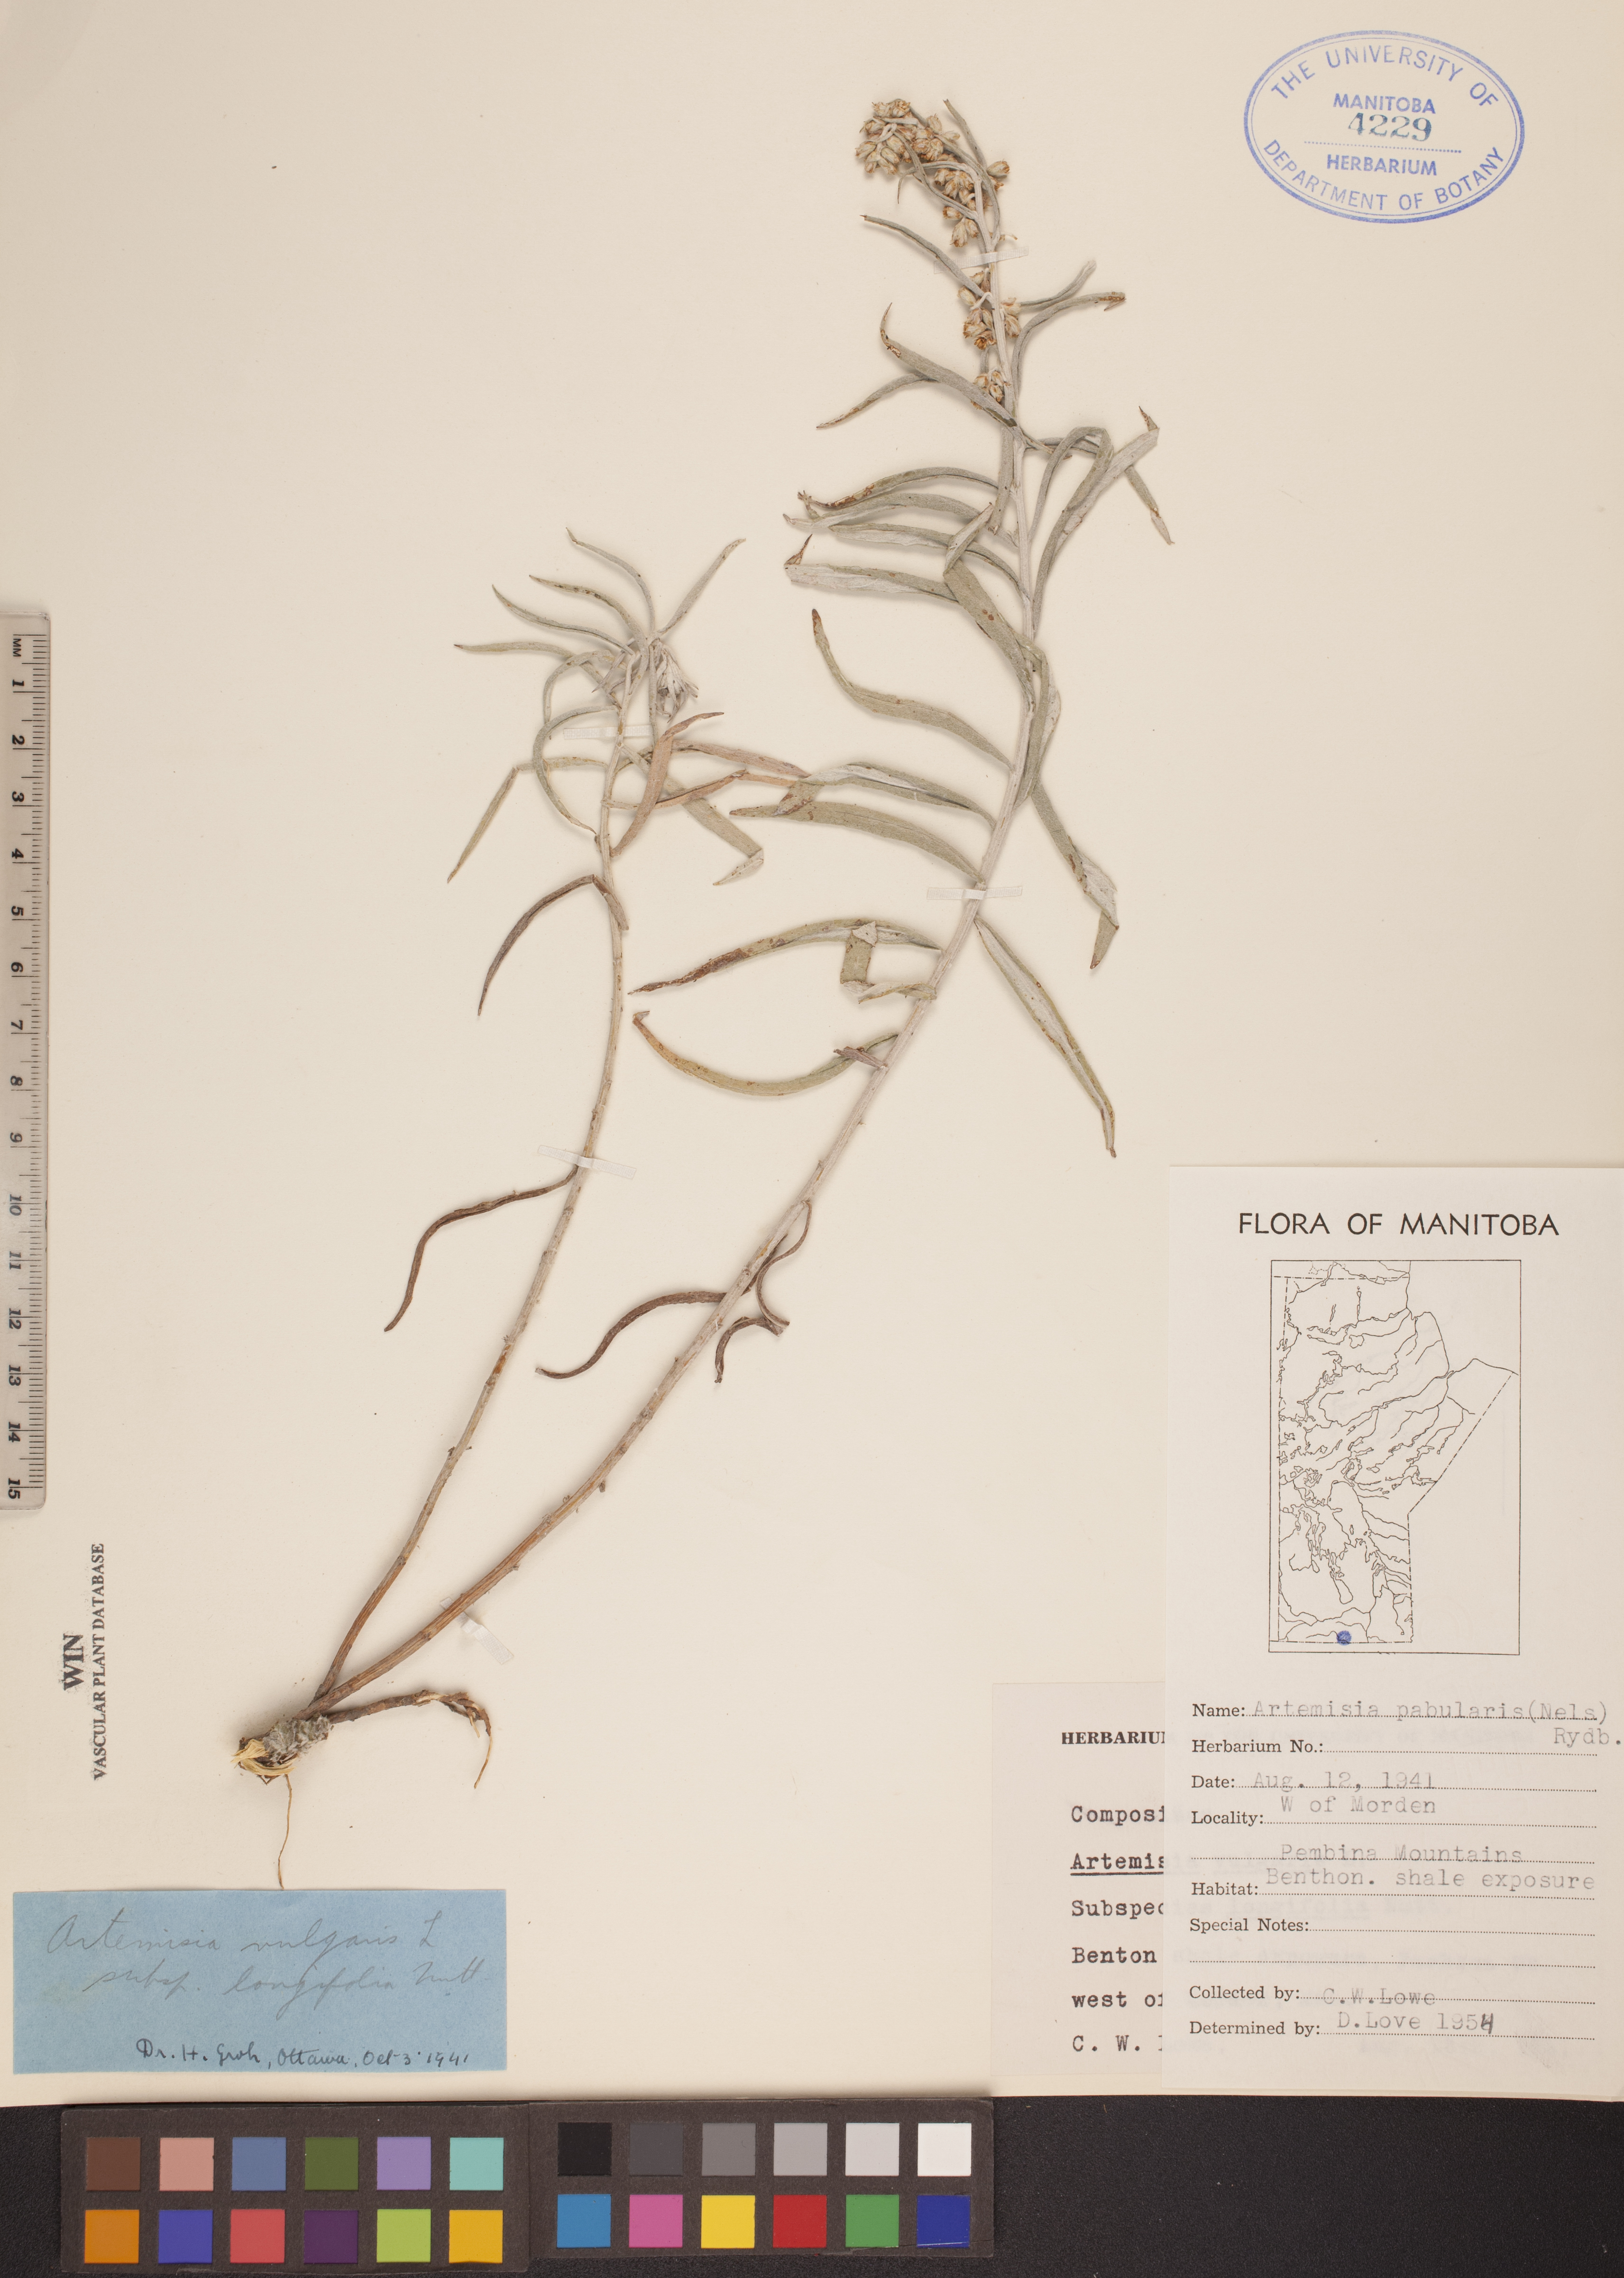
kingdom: Plantae
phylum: Tracheophyta
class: Magnoliopsida
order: Asterales
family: Asteraceae
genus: Artemisia
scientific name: Artemisia ludoviciana
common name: Western mugwort
